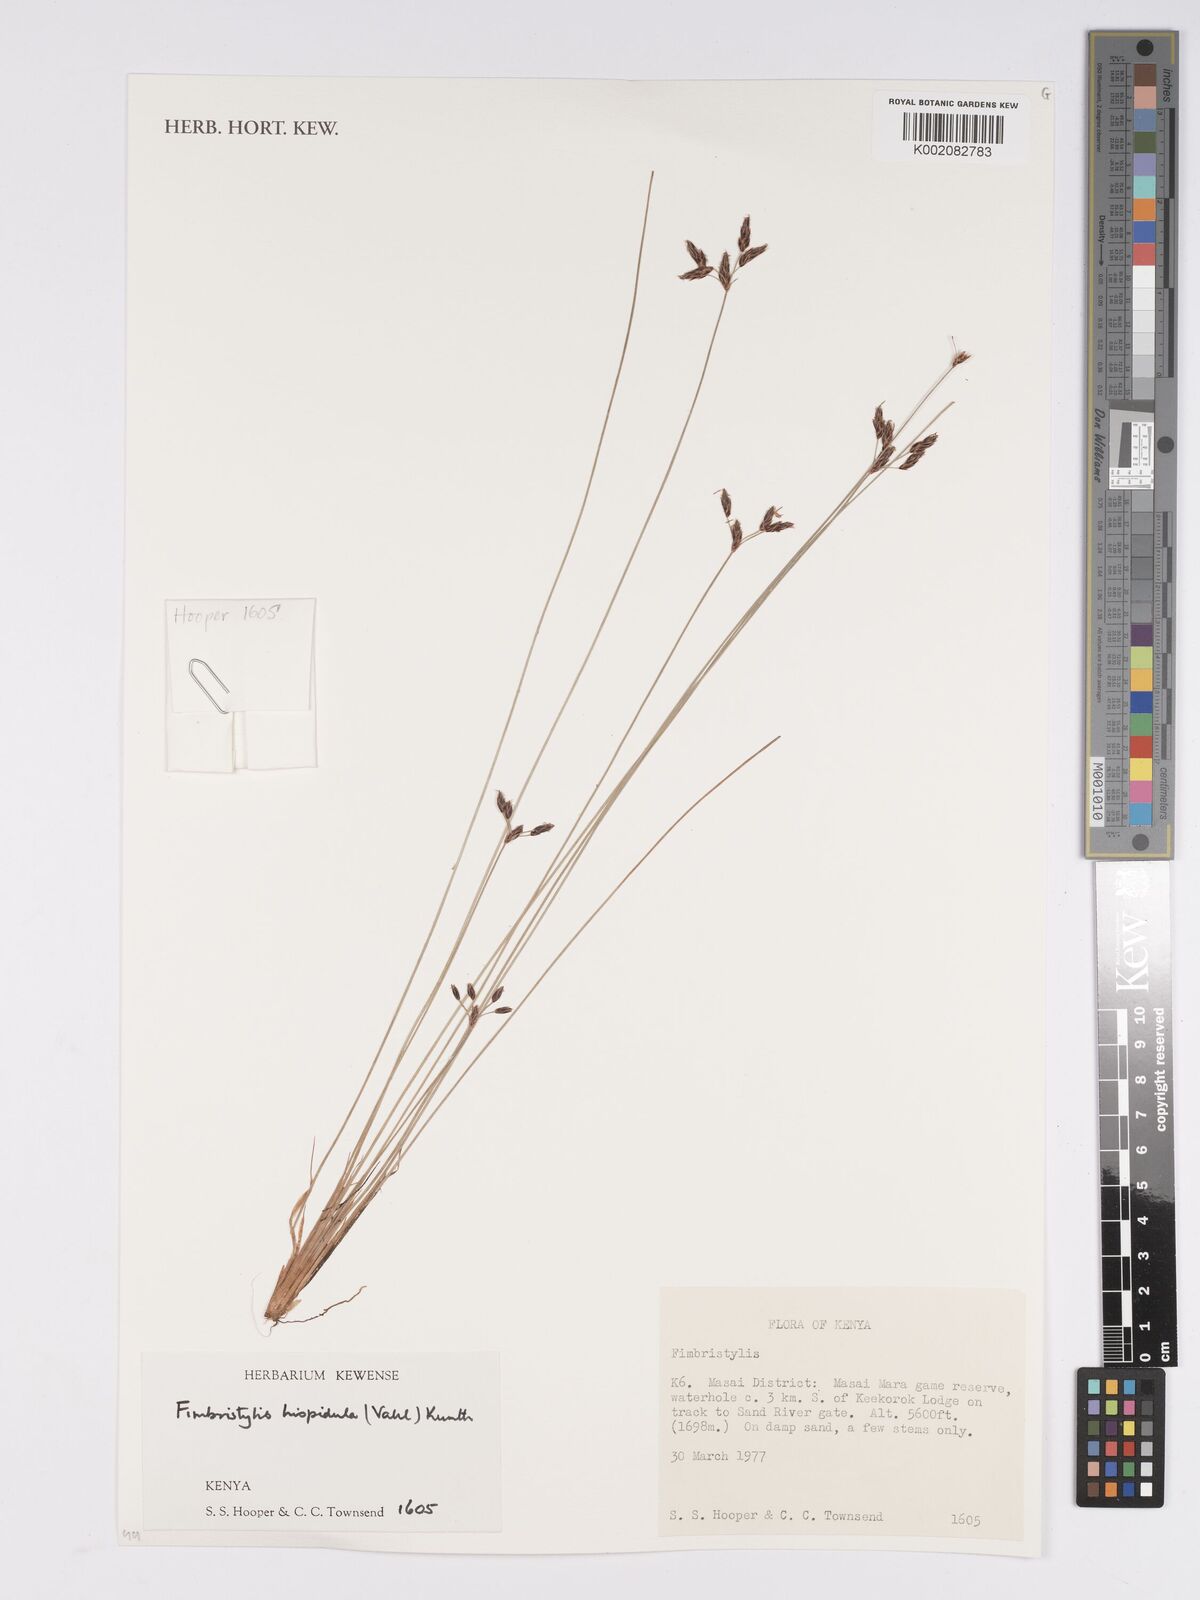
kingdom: Plantae
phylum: Tracheophyta
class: Liliopsida
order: Poales
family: Cyperaceae
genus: Bulbostylis
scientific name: Bulbostylis hispidula
